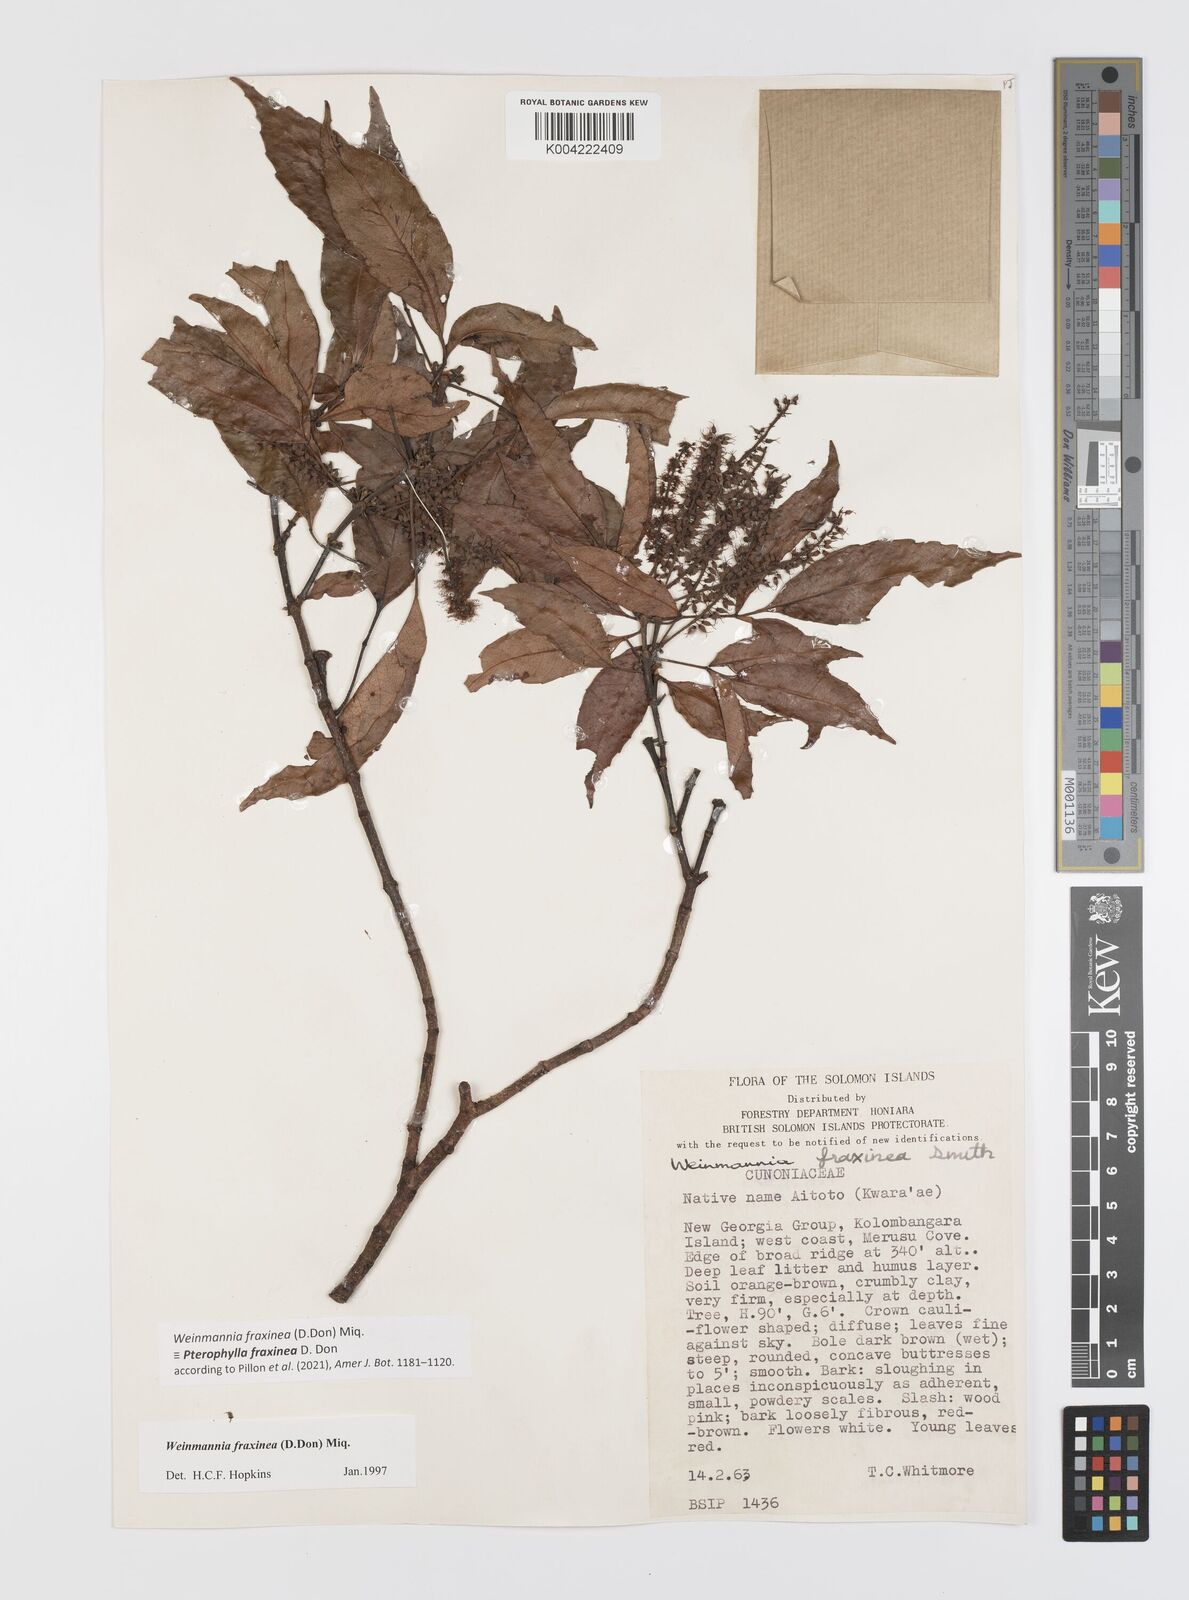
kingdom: Plantae
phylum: Tracheophyta
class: Magnoliopsida
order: Oxalidales
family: Cunoniaceae
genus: Pterophylla
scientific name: Pterophylla fraxinea
